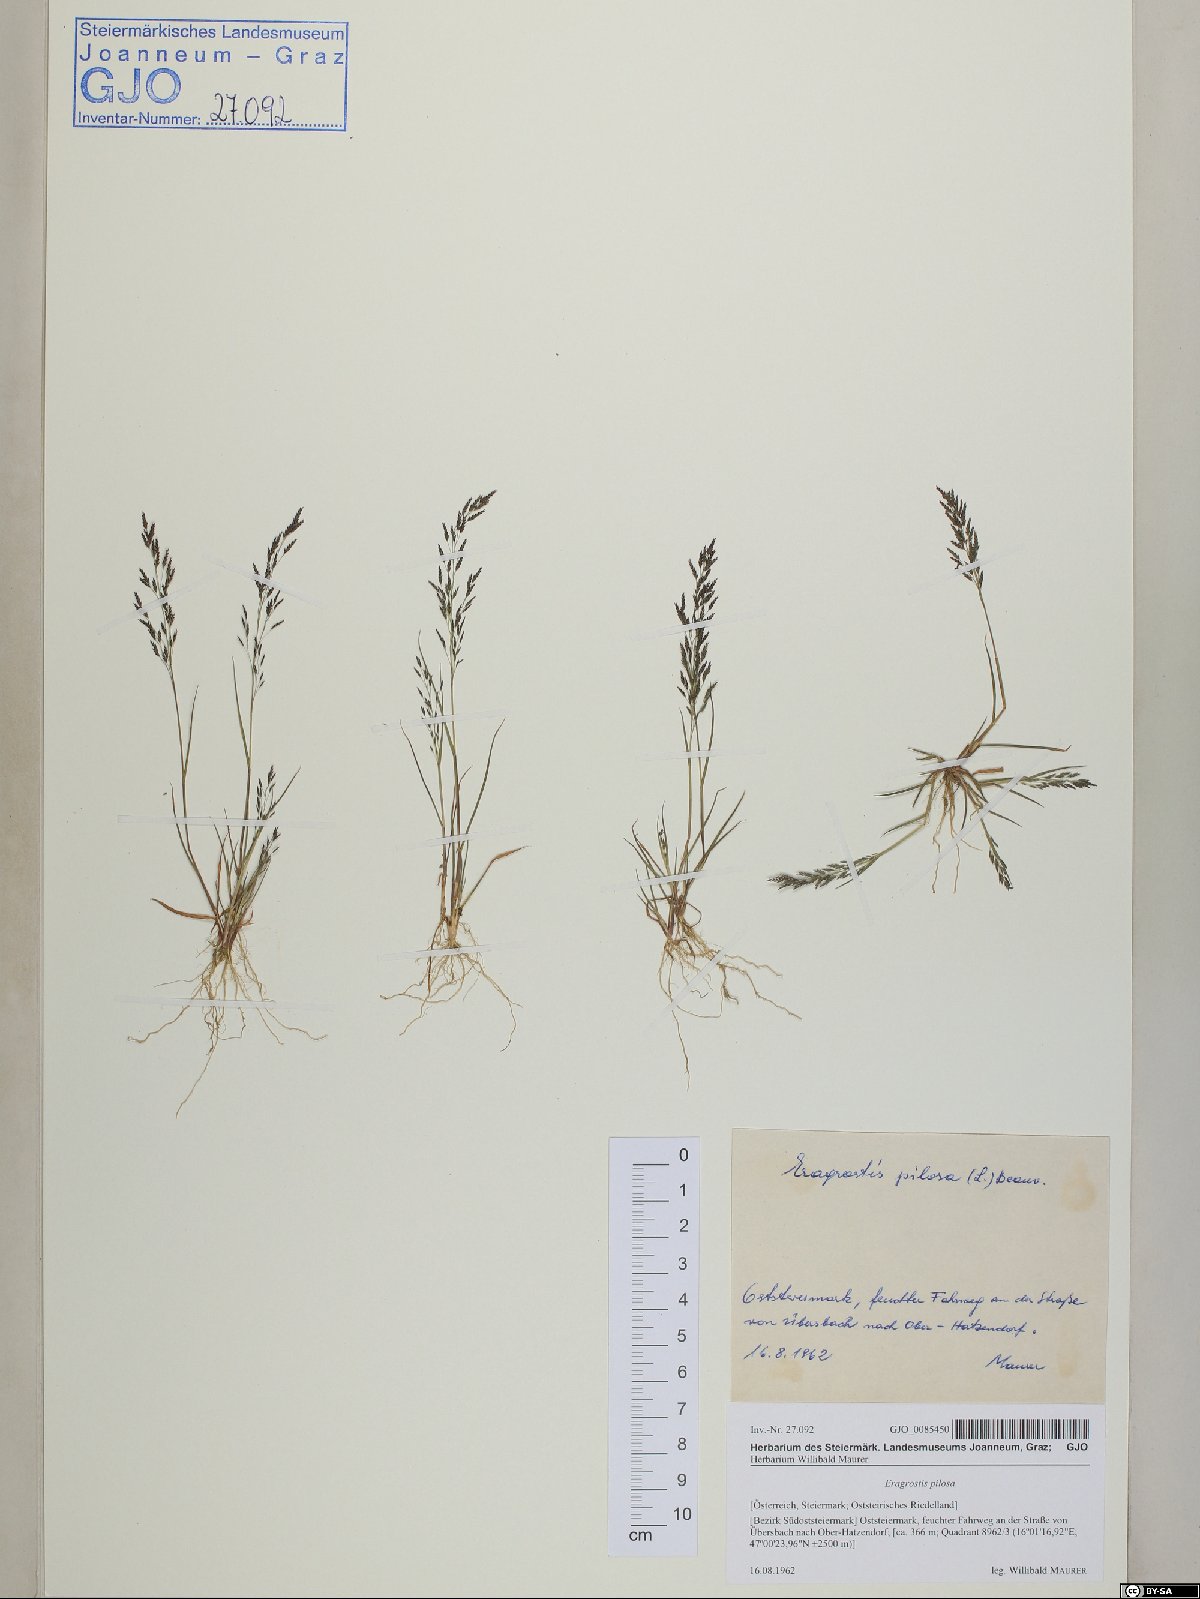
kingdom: Plantae
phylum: Tracheophyta
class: Liliopsida
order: Poales
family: Poaceae
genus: Eragrostis
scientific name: Eragrostis pilosa
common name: Indian lovegrass
